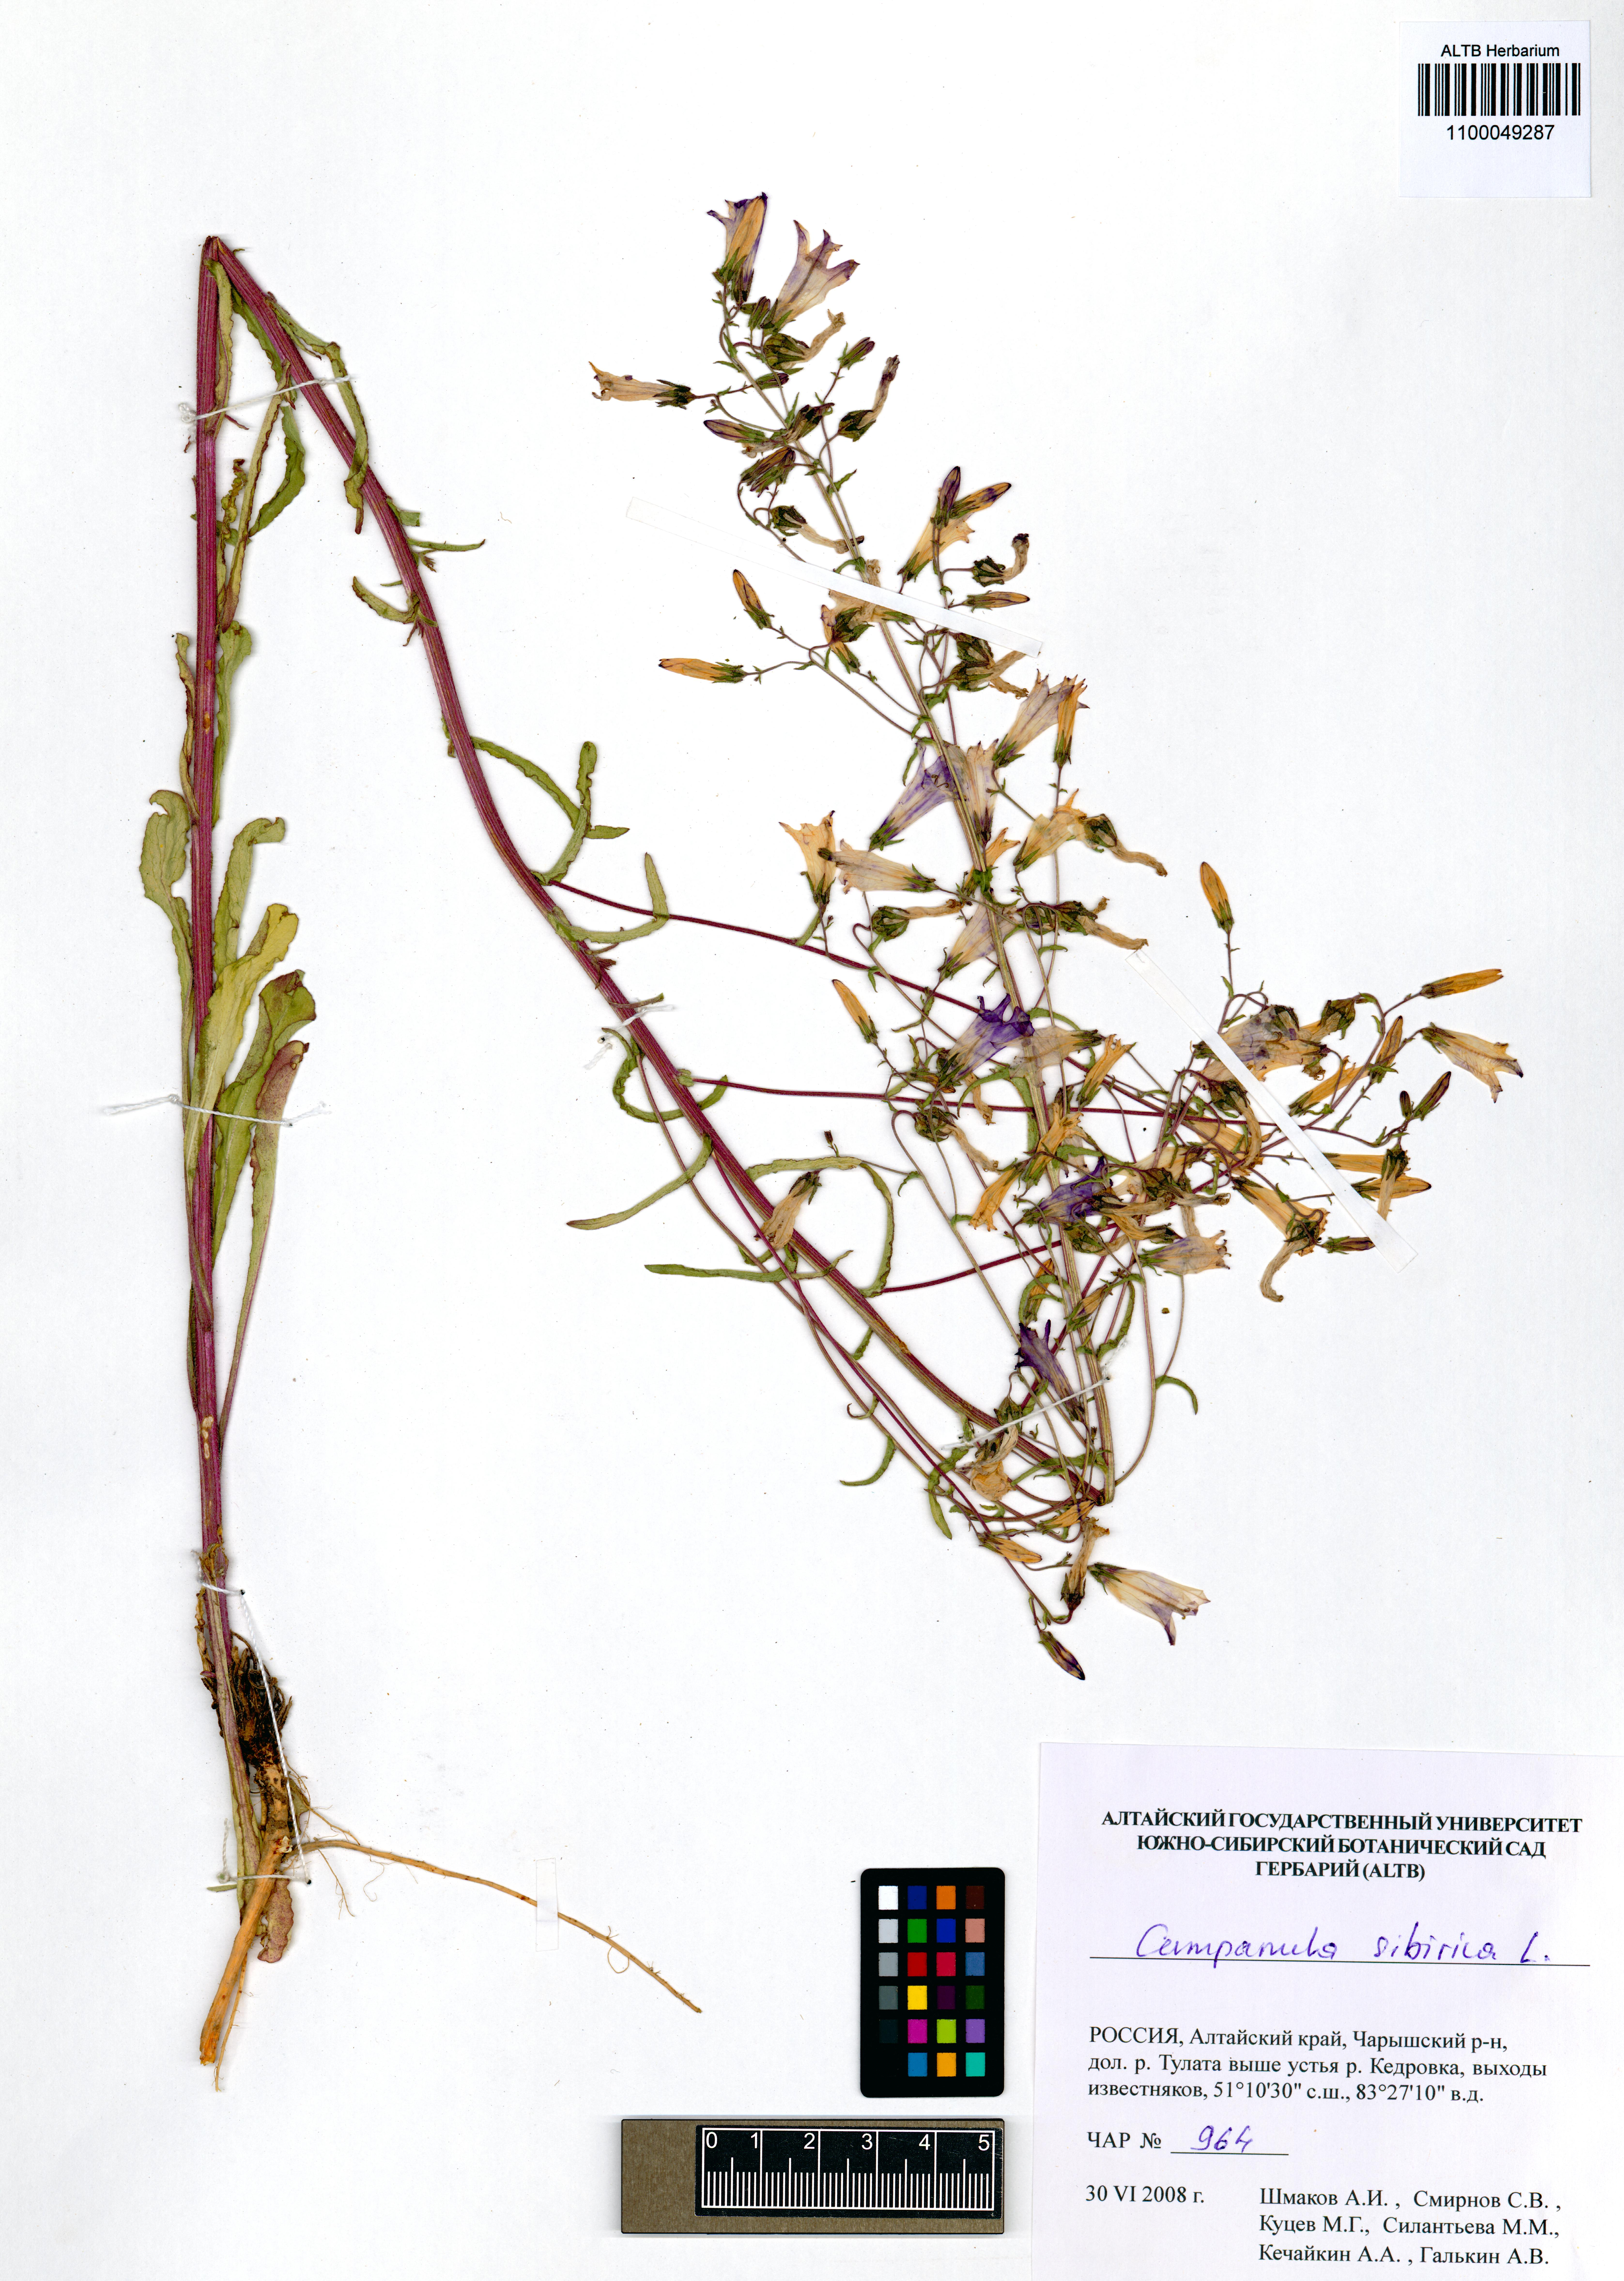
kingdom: Plantae
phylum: Tracheophyta
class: Magnoliopsida
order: Asterales
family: Campanulaceae
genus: Campanula
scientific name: Campanula sibirica
